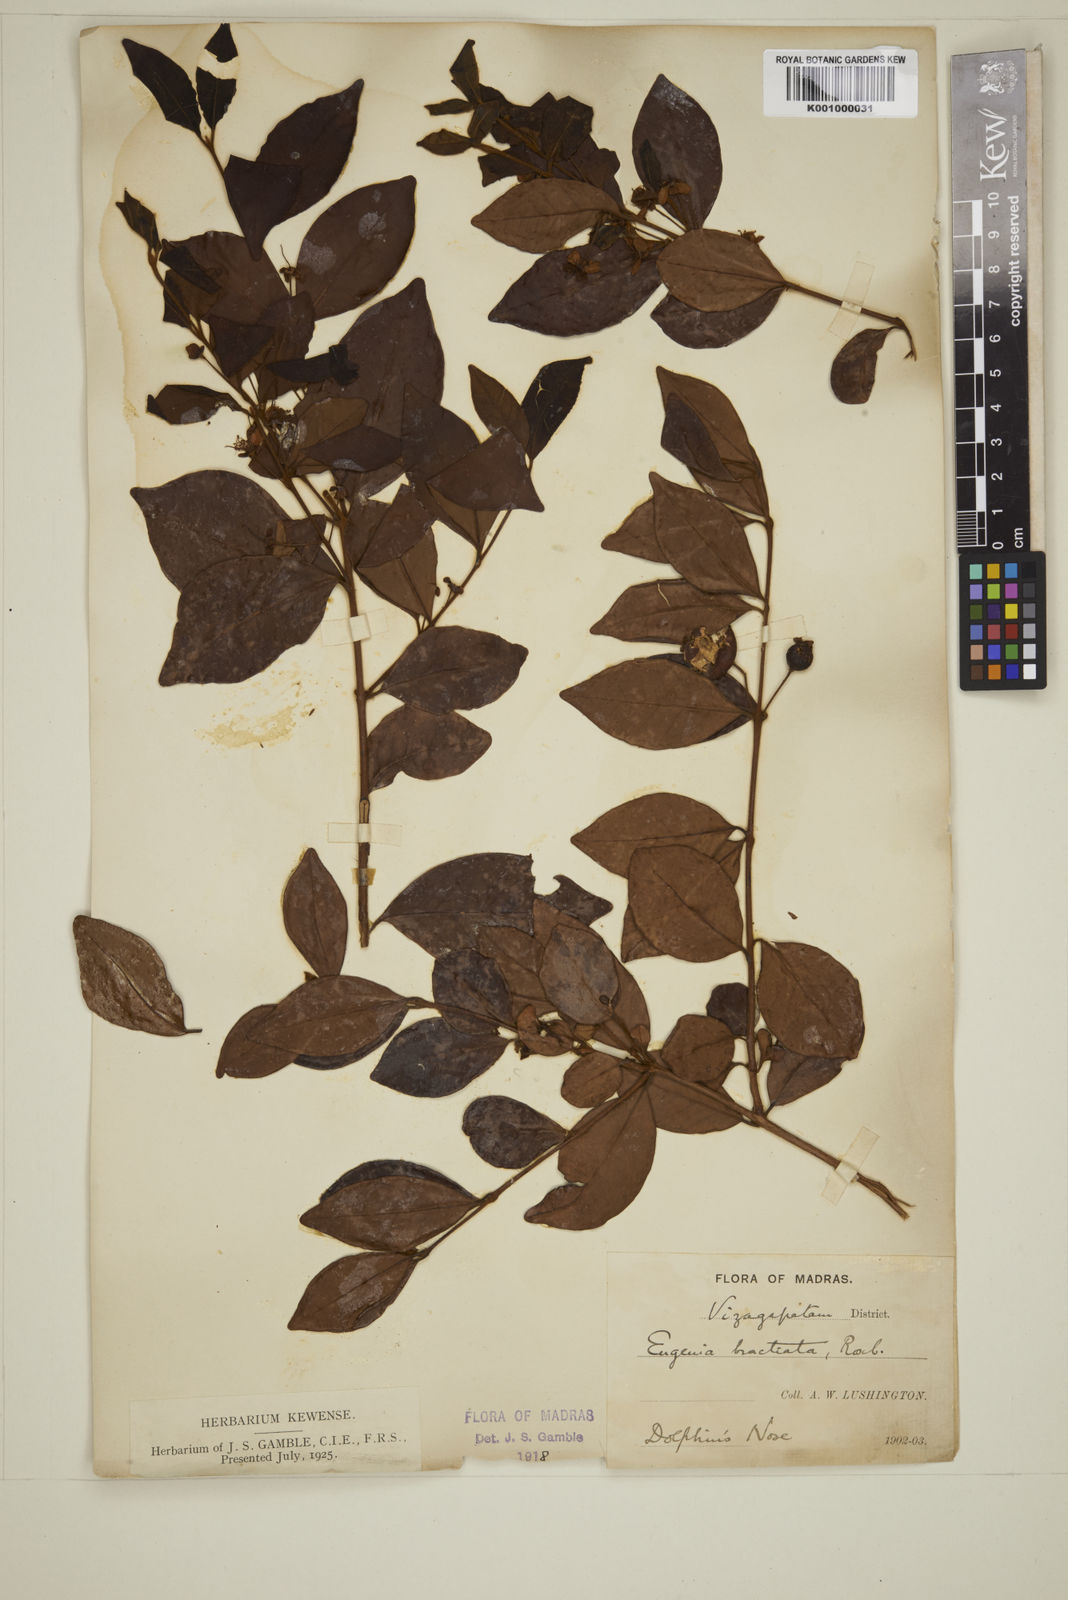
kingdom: Plantae
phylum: Tracheophyta
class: Magnoliopsida
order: Myrtales
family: Myrtaceae
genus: Myrcia
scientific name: Myrcia bracteata
